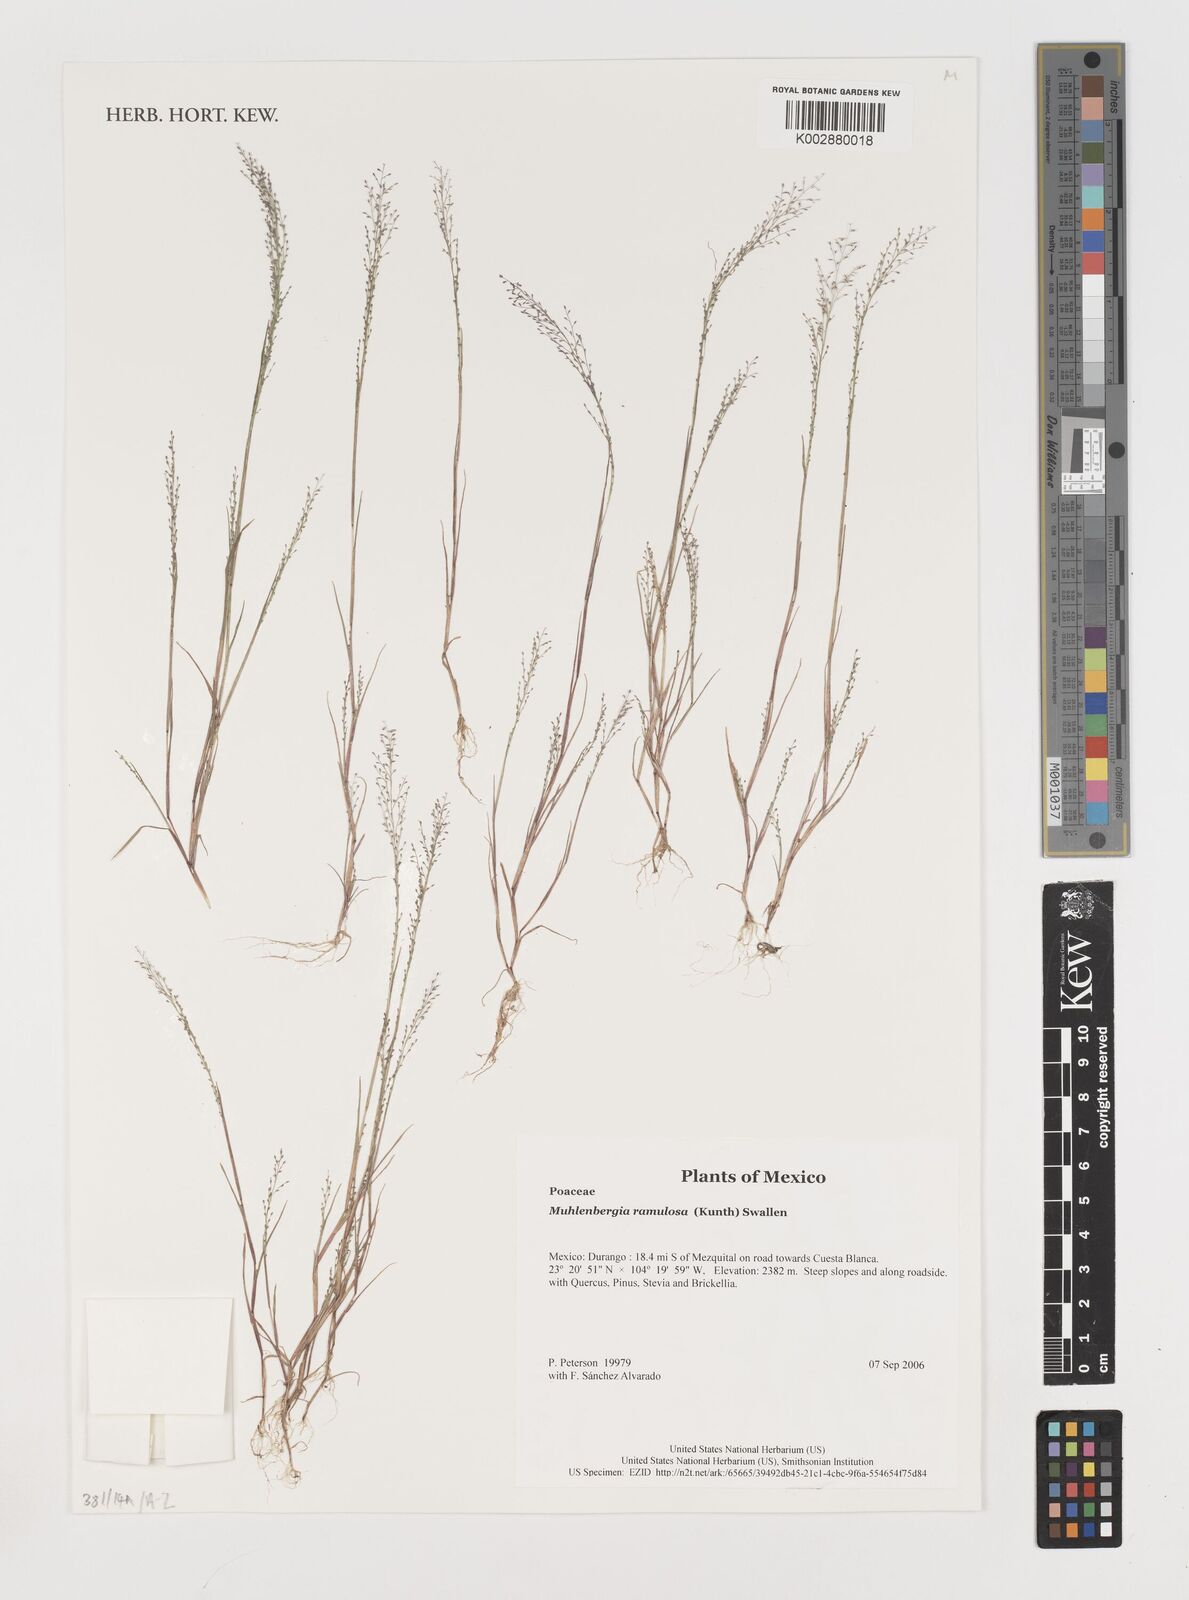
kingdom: Plantae
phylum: Tracheophyta
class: Liliopsida
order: Poales
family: Poaceae
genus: Muhlenbergia
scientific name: Muhlenbergia ramulosa
